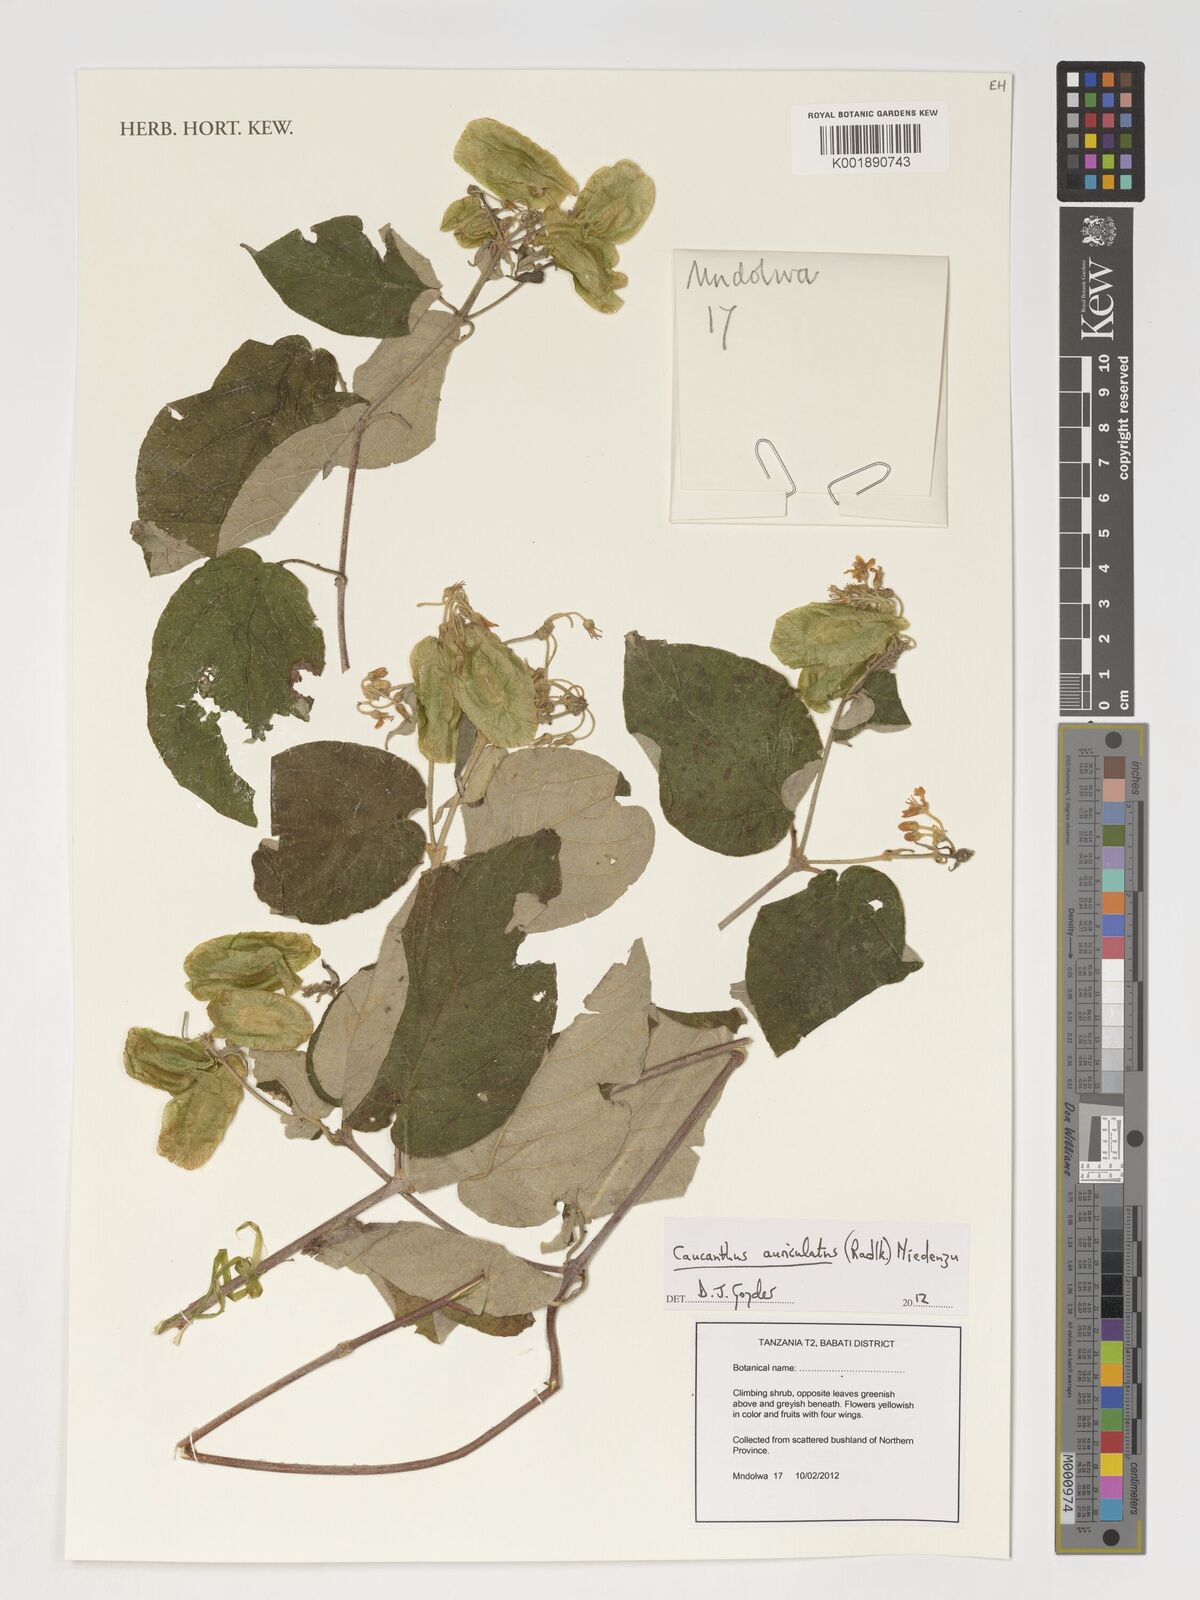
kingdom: Plantae
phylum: Tracheophyta
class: Magnoliopsida
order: Malpighiales
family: Malpighiaceae
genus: Caucanthus
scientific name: Caucanthus auriculatus
